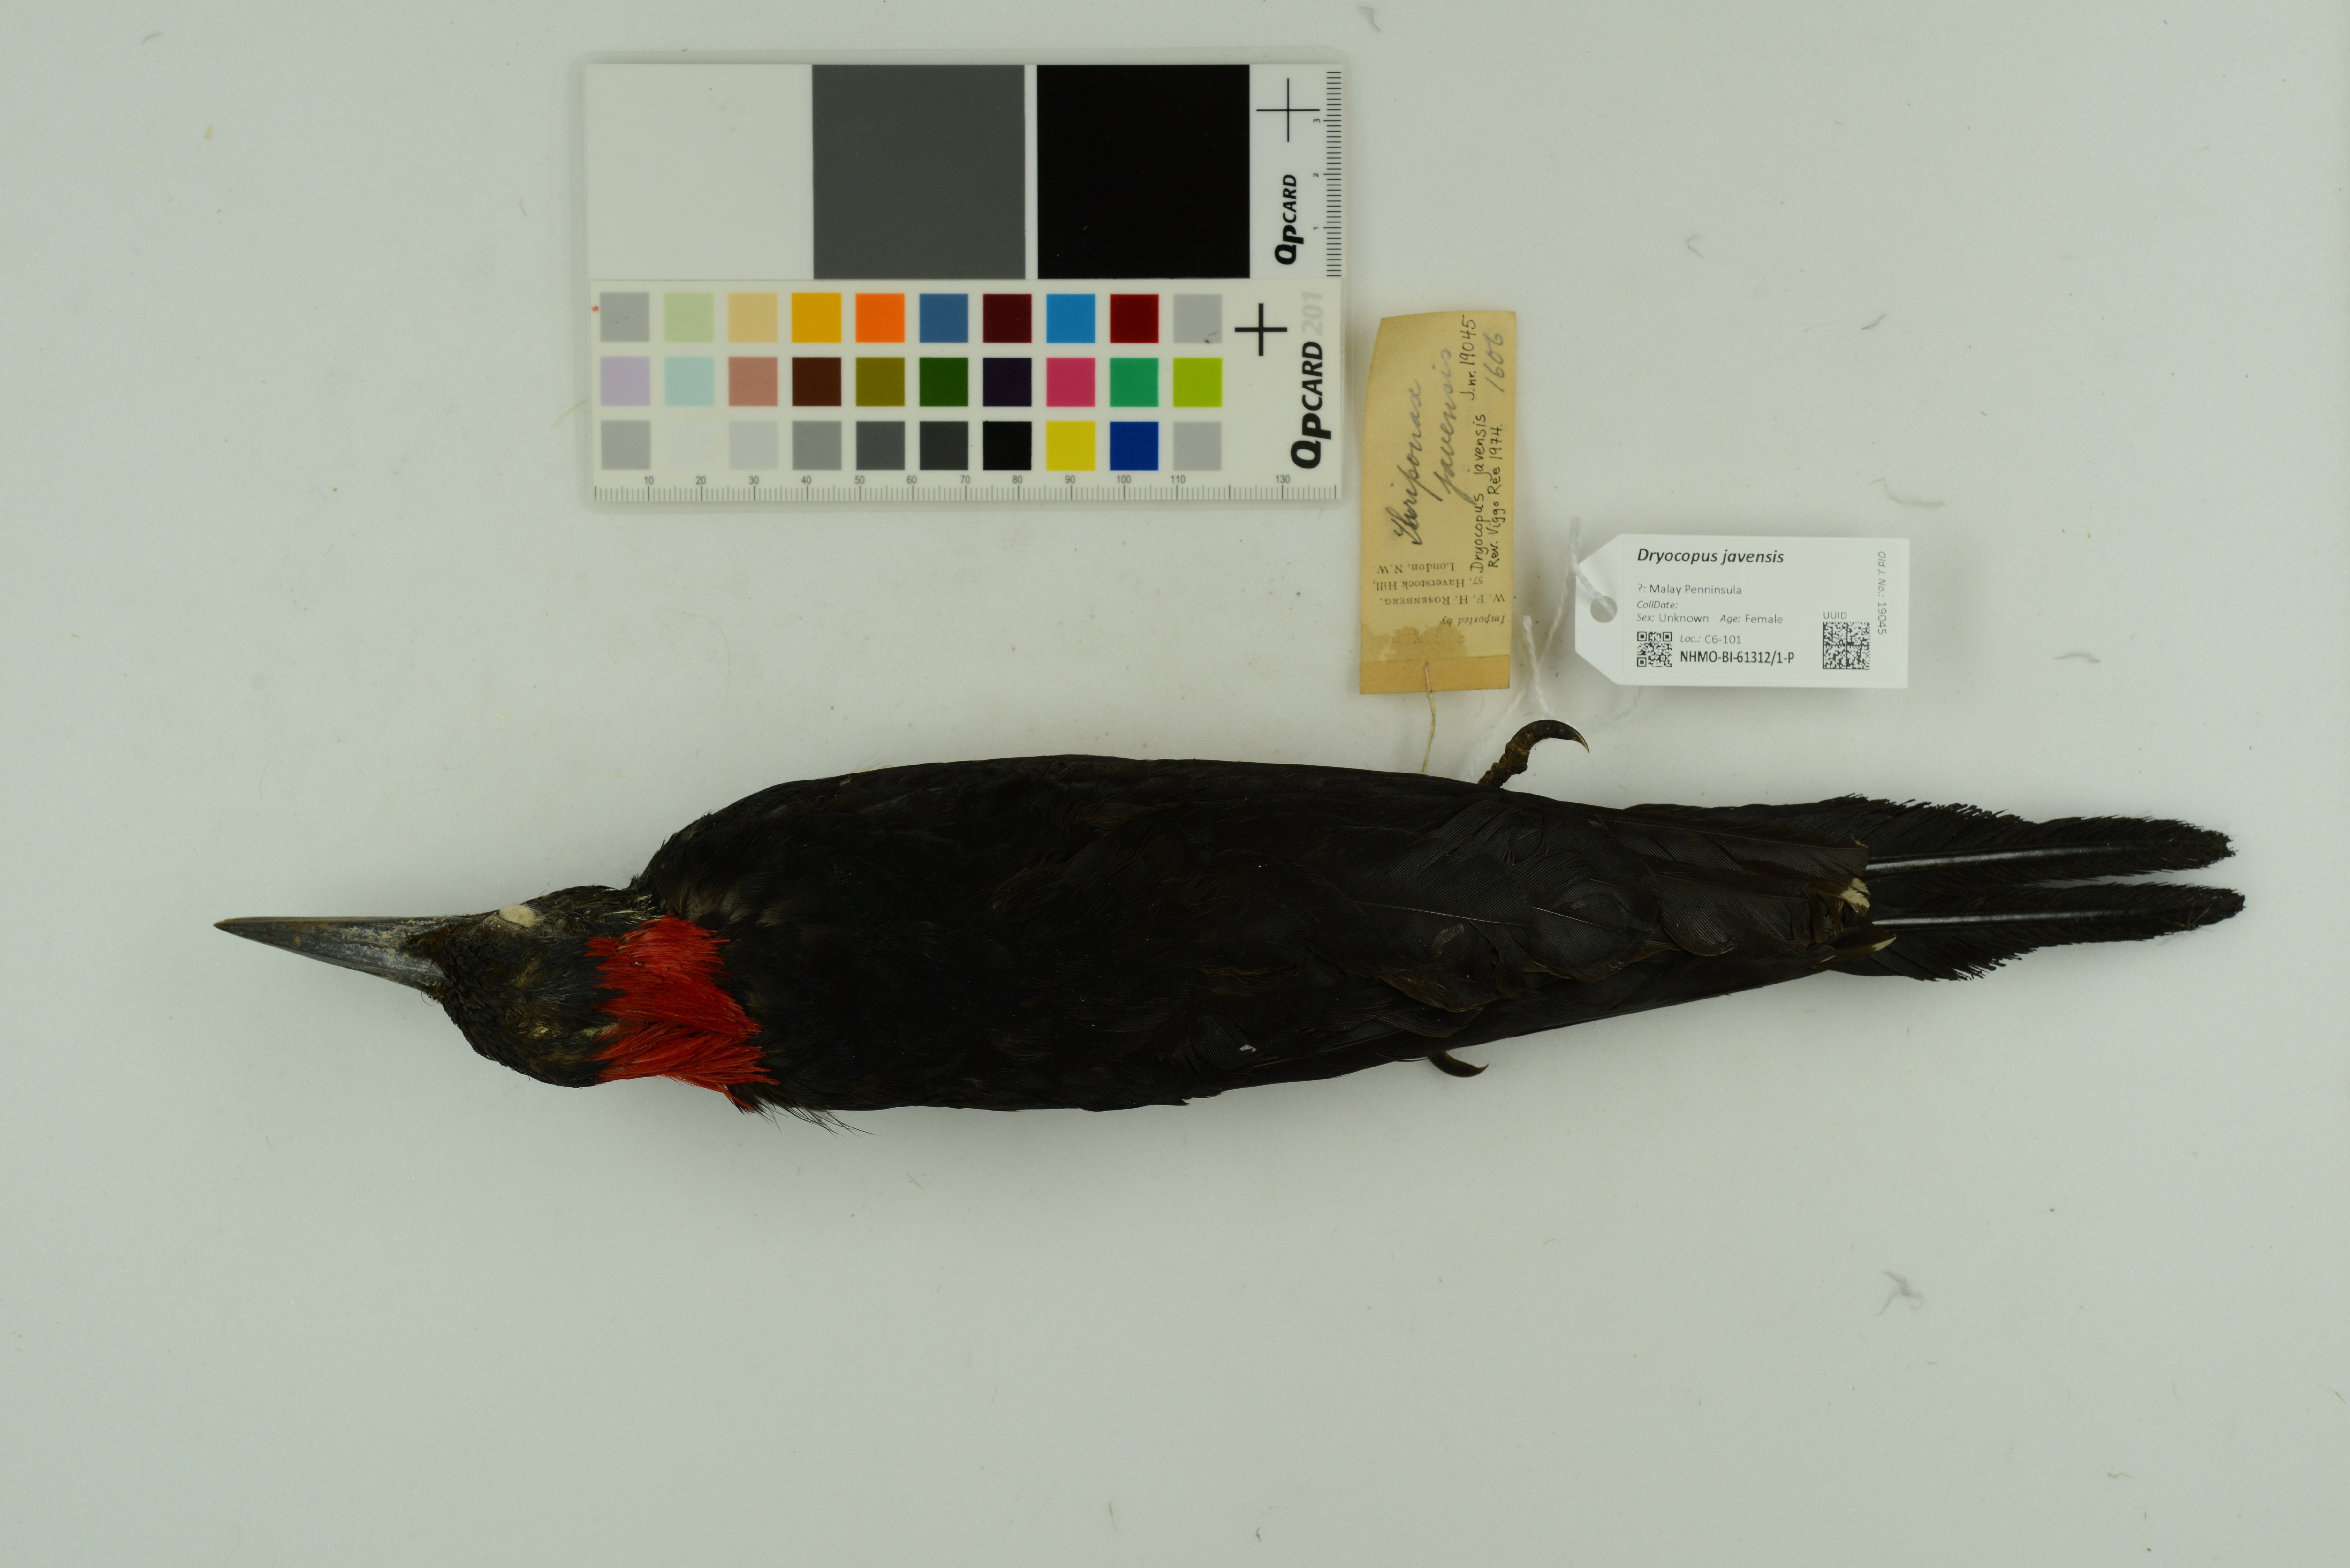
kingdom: Animalia
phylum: Chordata
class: Aves
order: Piciformes
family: Picidae
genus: Dryocopus
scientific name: Dryocopus javensis
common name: White-bellied woodpecker
